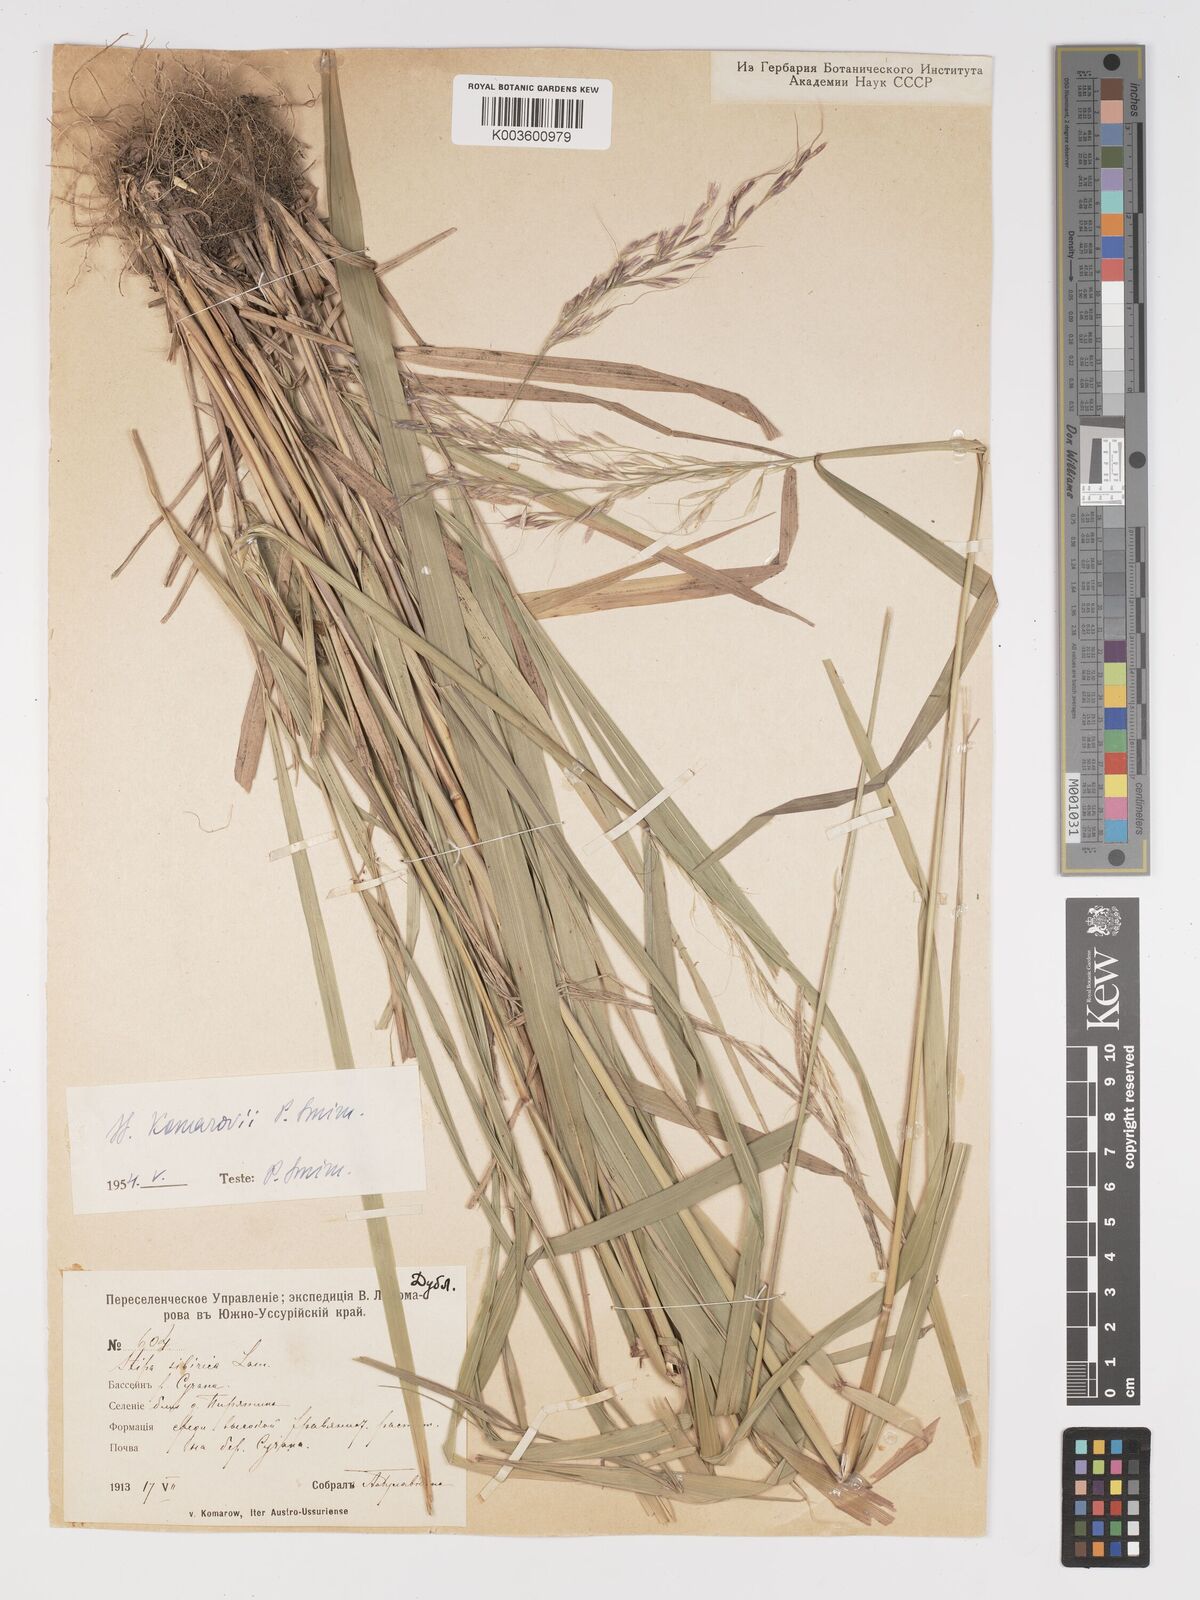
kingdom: Plantae
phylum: Tracheophyta
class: Liliopsida
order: Poales
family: Poaceae
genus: Achnatherum
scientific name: Achnatherum sibiricum
